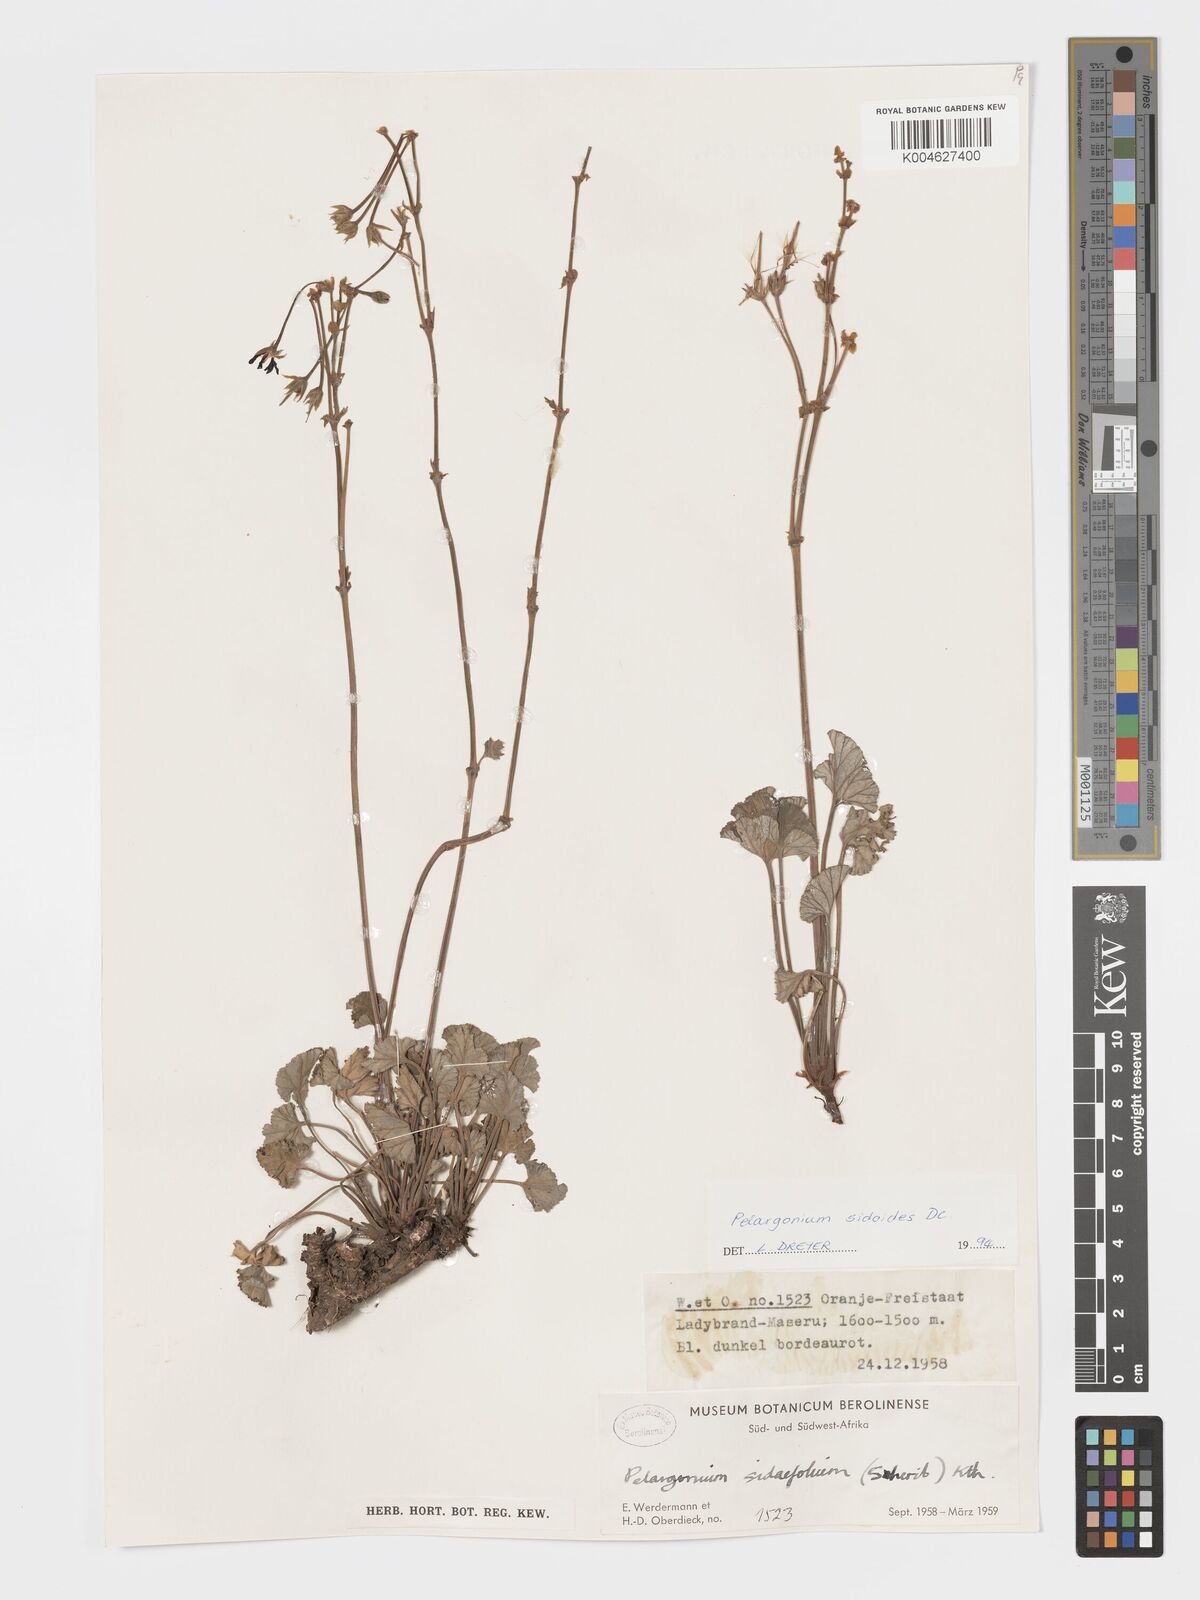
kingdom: Plantae
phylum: Tracheophyta
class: Magnoliopsida
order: Geraniales
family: Geraniaceae
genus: Pelargonium
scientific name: Pelargonium sidoides
